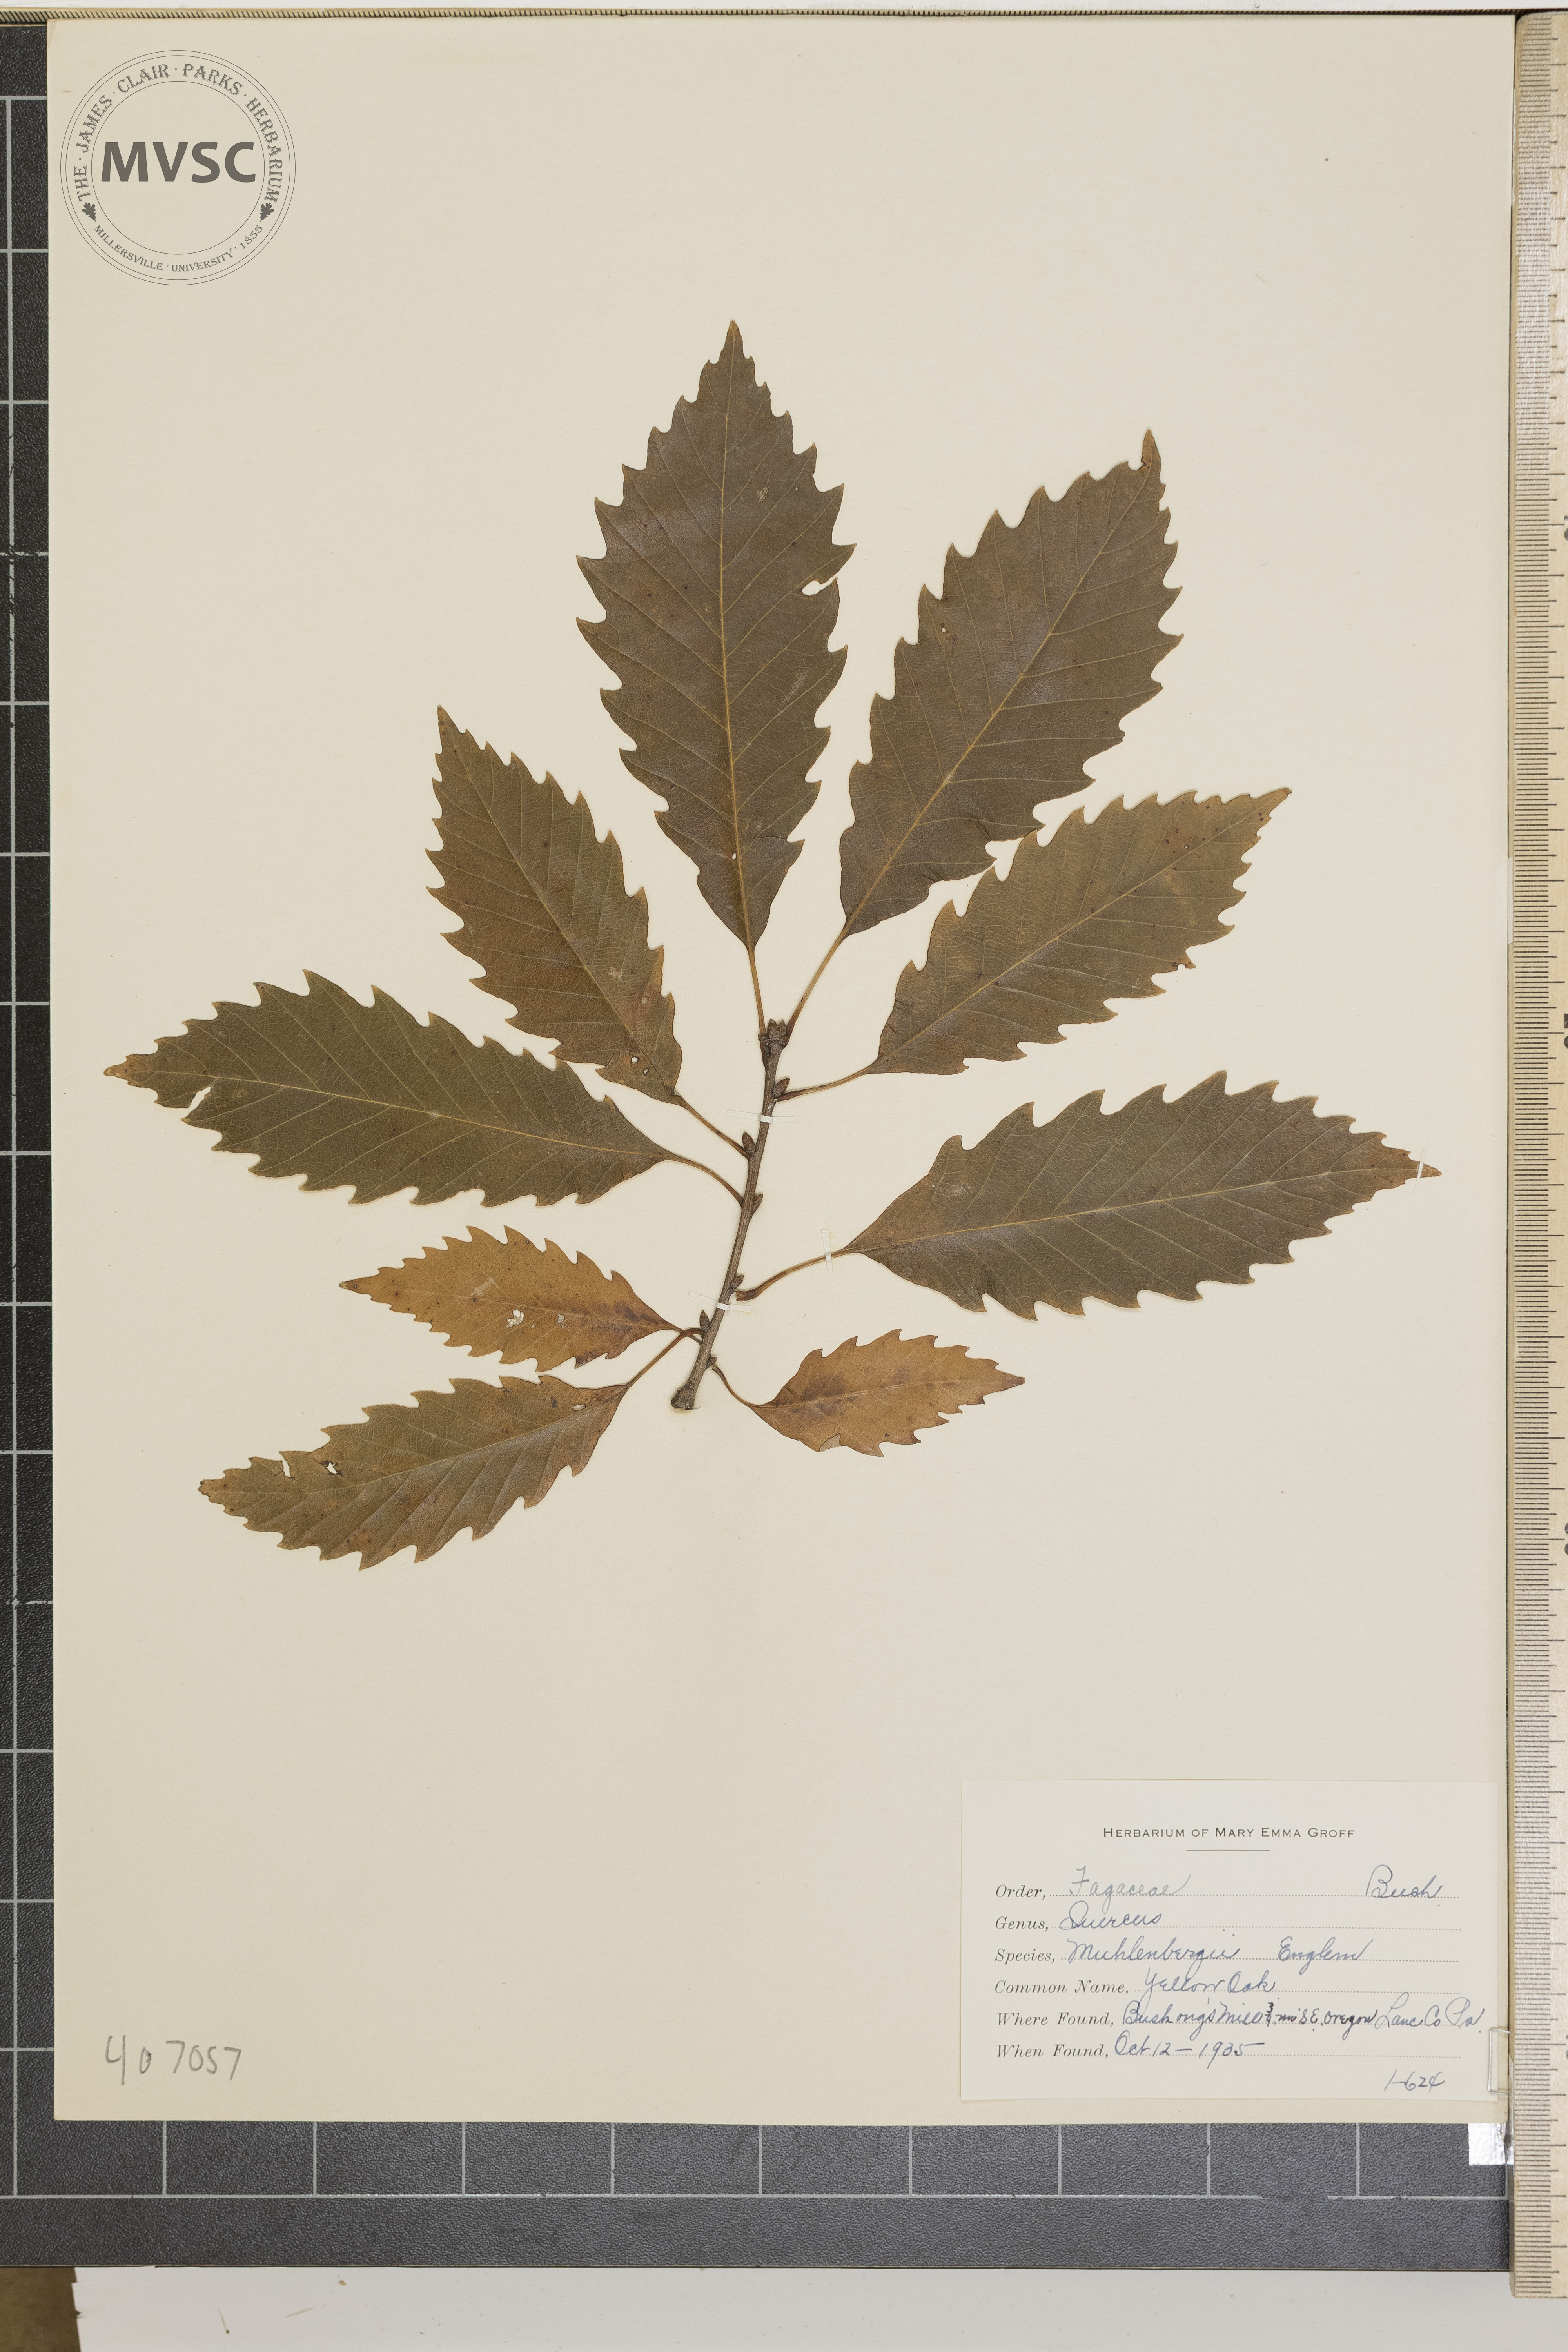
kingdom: Plantae
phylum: Tracheophyta
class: Magnoliopsida
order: Fagales
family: Fagaceae
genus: Quercus
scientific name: Quercus muehlenbergii
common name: yellow oak
